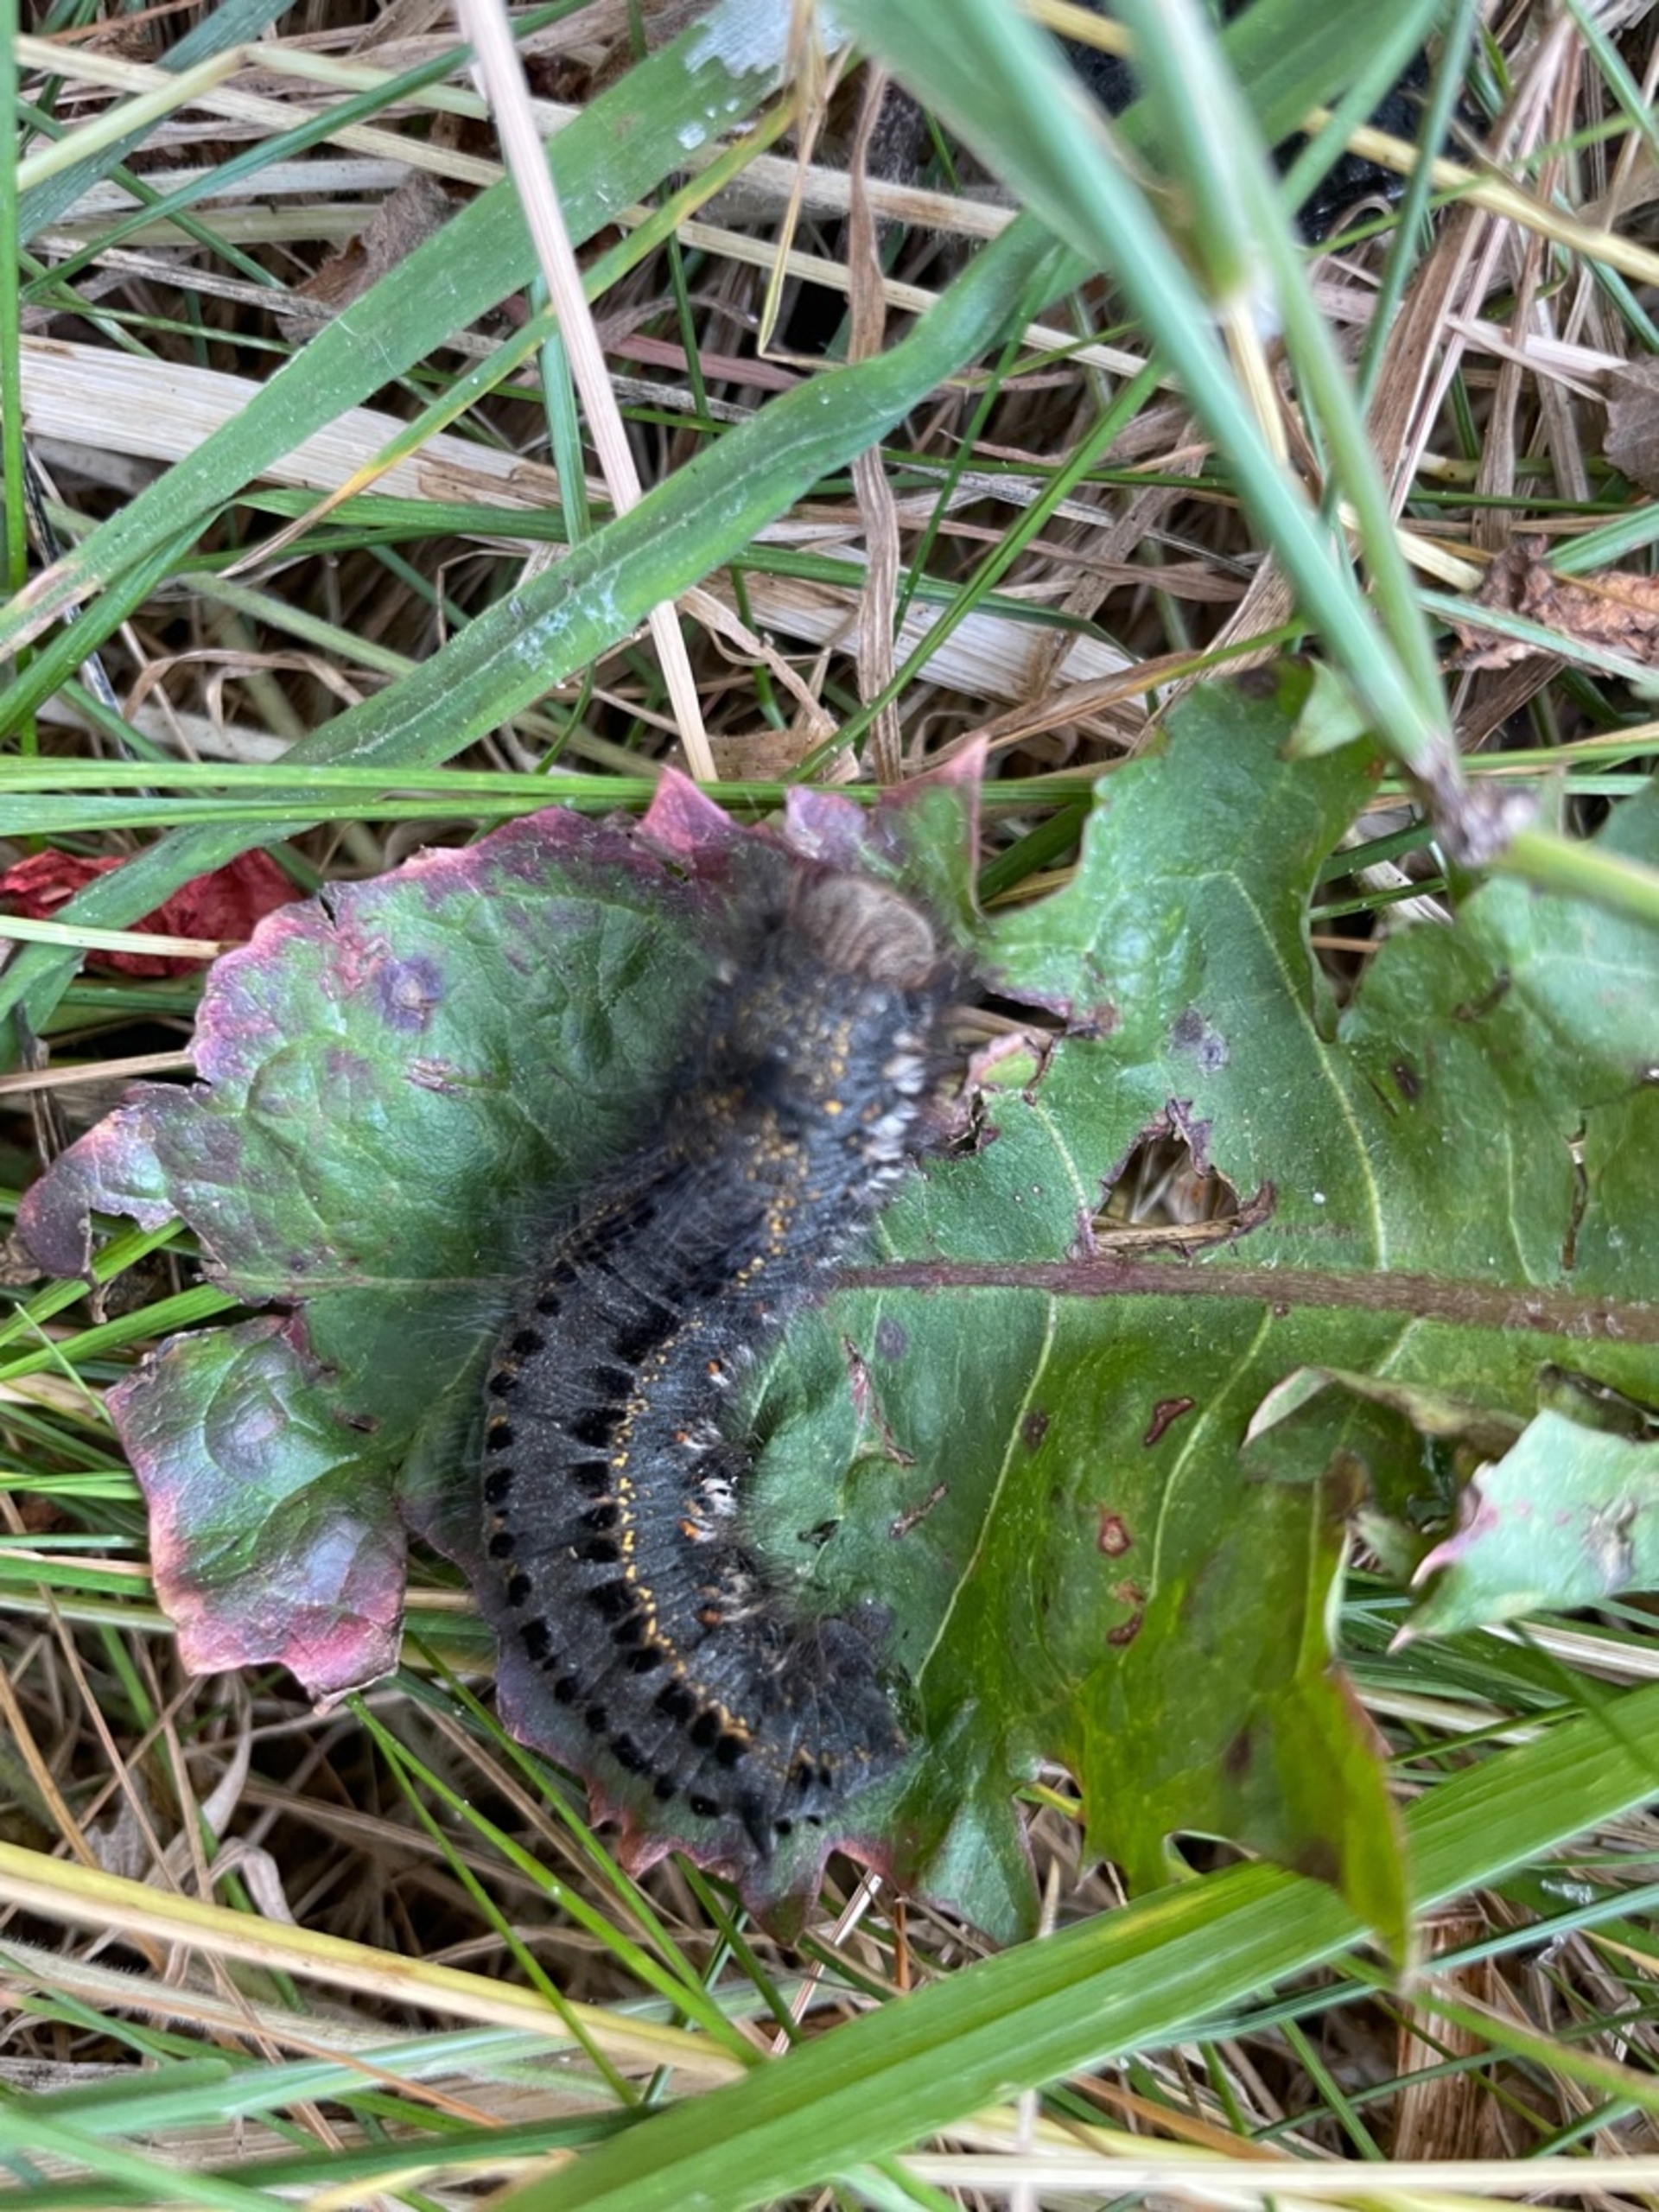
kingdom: Animalia
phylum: Arthropoda
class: Insecta
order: Lepidoptera
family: Lasiocampidae
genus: Euthrix
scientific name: Euthrix potatoria
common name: Græsspinder
